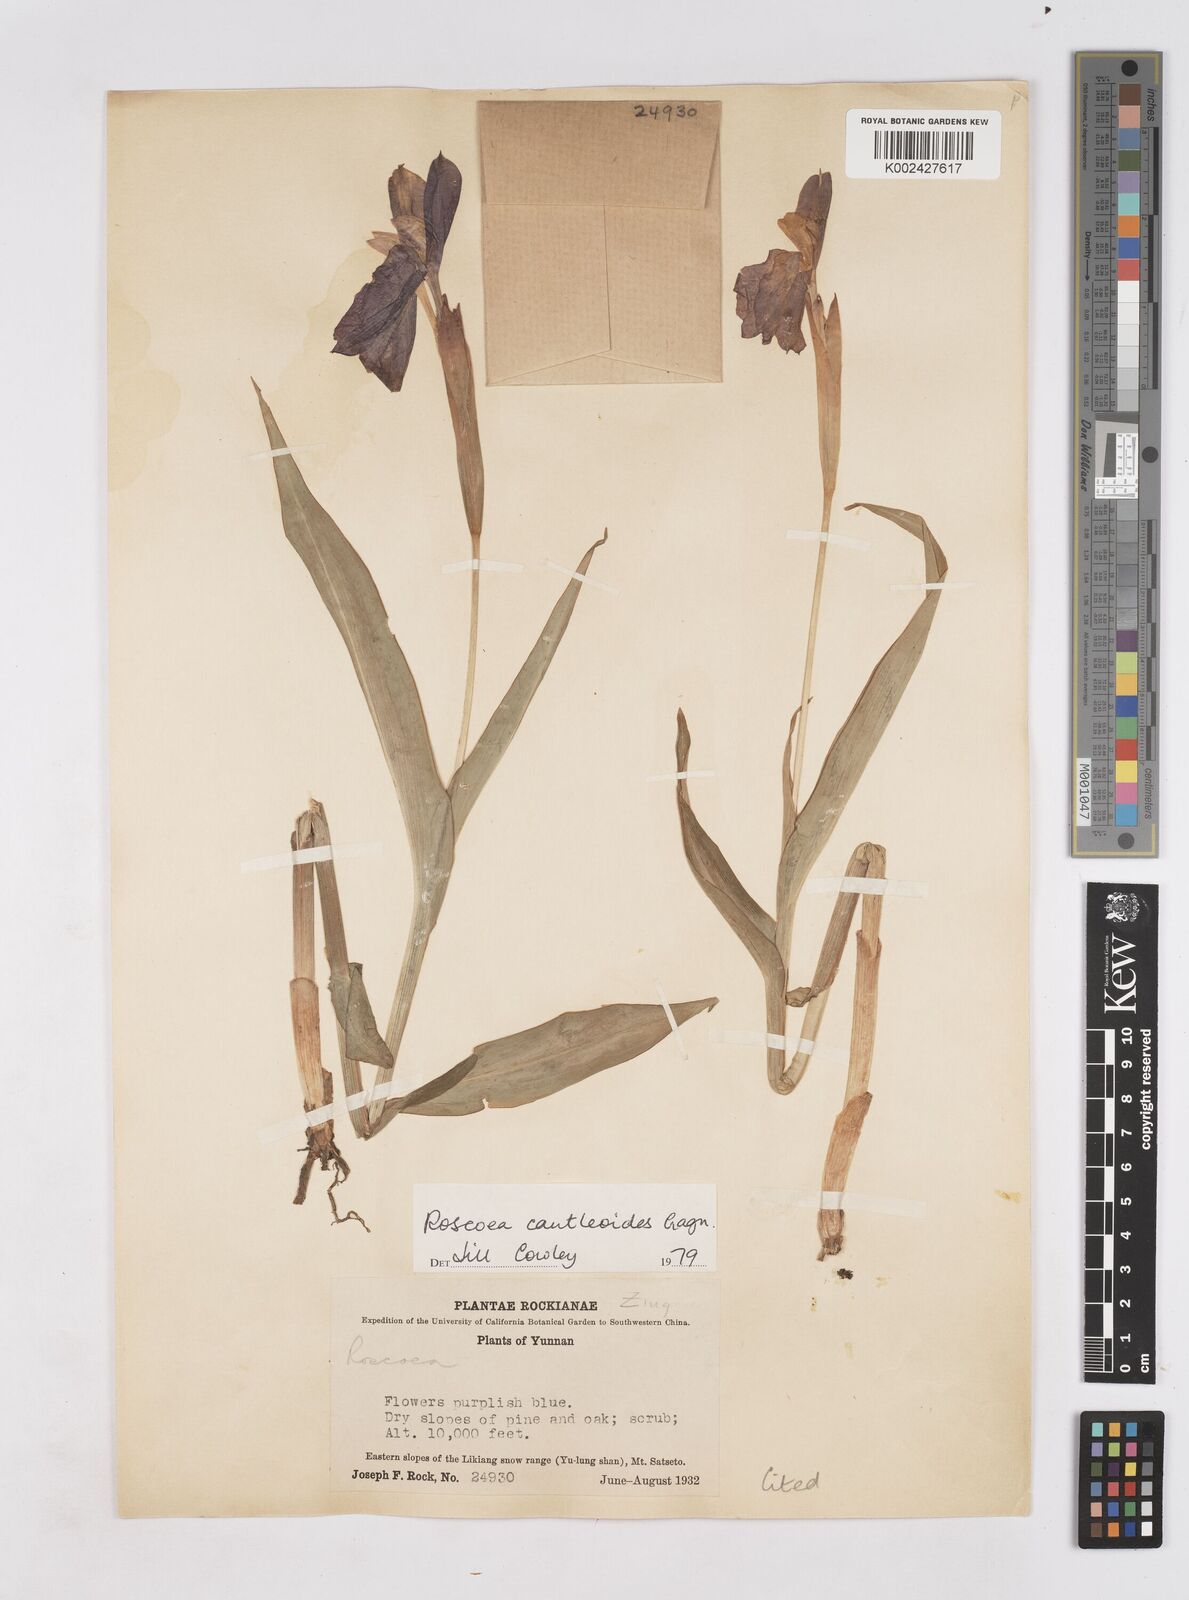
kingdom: Plantae
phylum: Tracheophyta
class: Liliopsida
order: Zingiberales
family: Zingiberaceae
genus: Roscoea
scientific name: Roscoea cautleyoides
